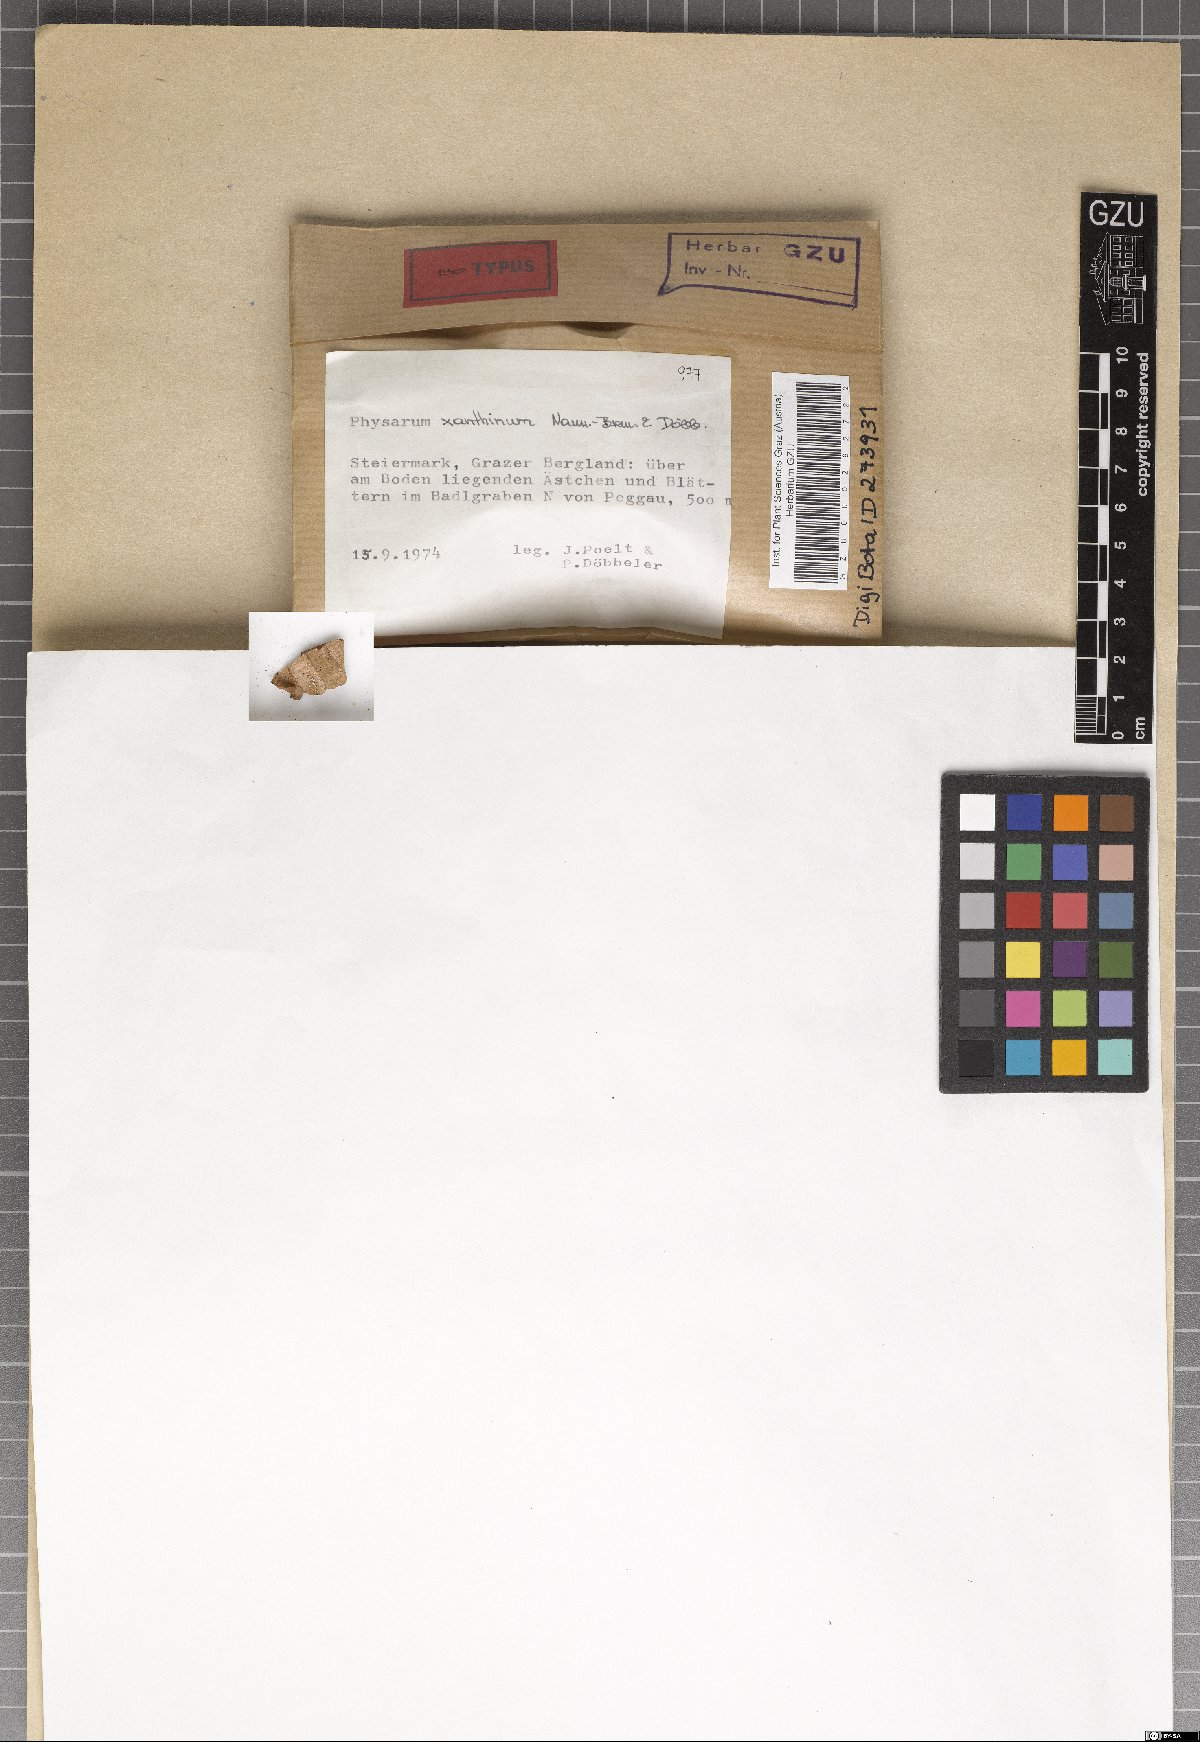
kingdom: Protozoa
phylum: Mycetozoa
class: Myxomycetes
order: Physarales
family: Physaraceae
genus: Physarum
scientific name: Physarum xanthinum
